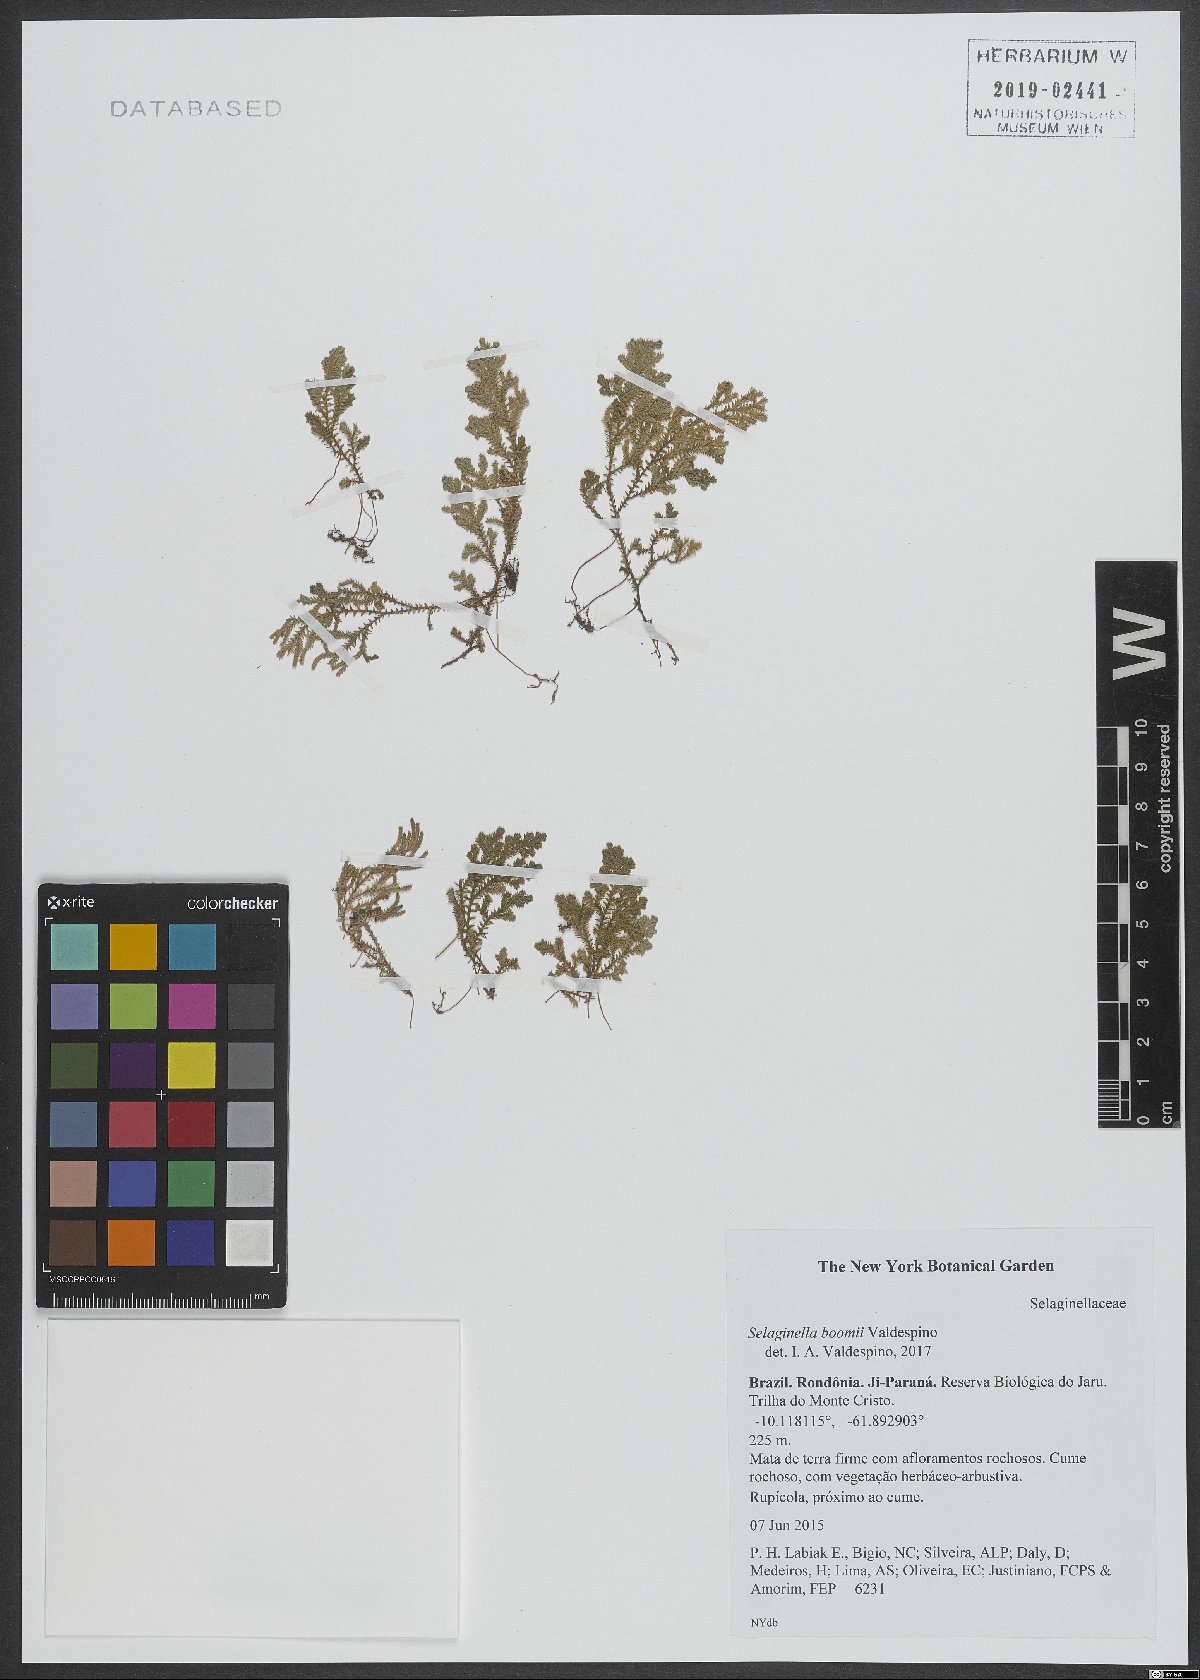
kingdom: Plantae
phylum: Tracheophyta
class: Lycopodiopsida
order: Selaginellales
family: Selaginellaceae
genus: Selaginella
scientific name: Selaginella boomii
